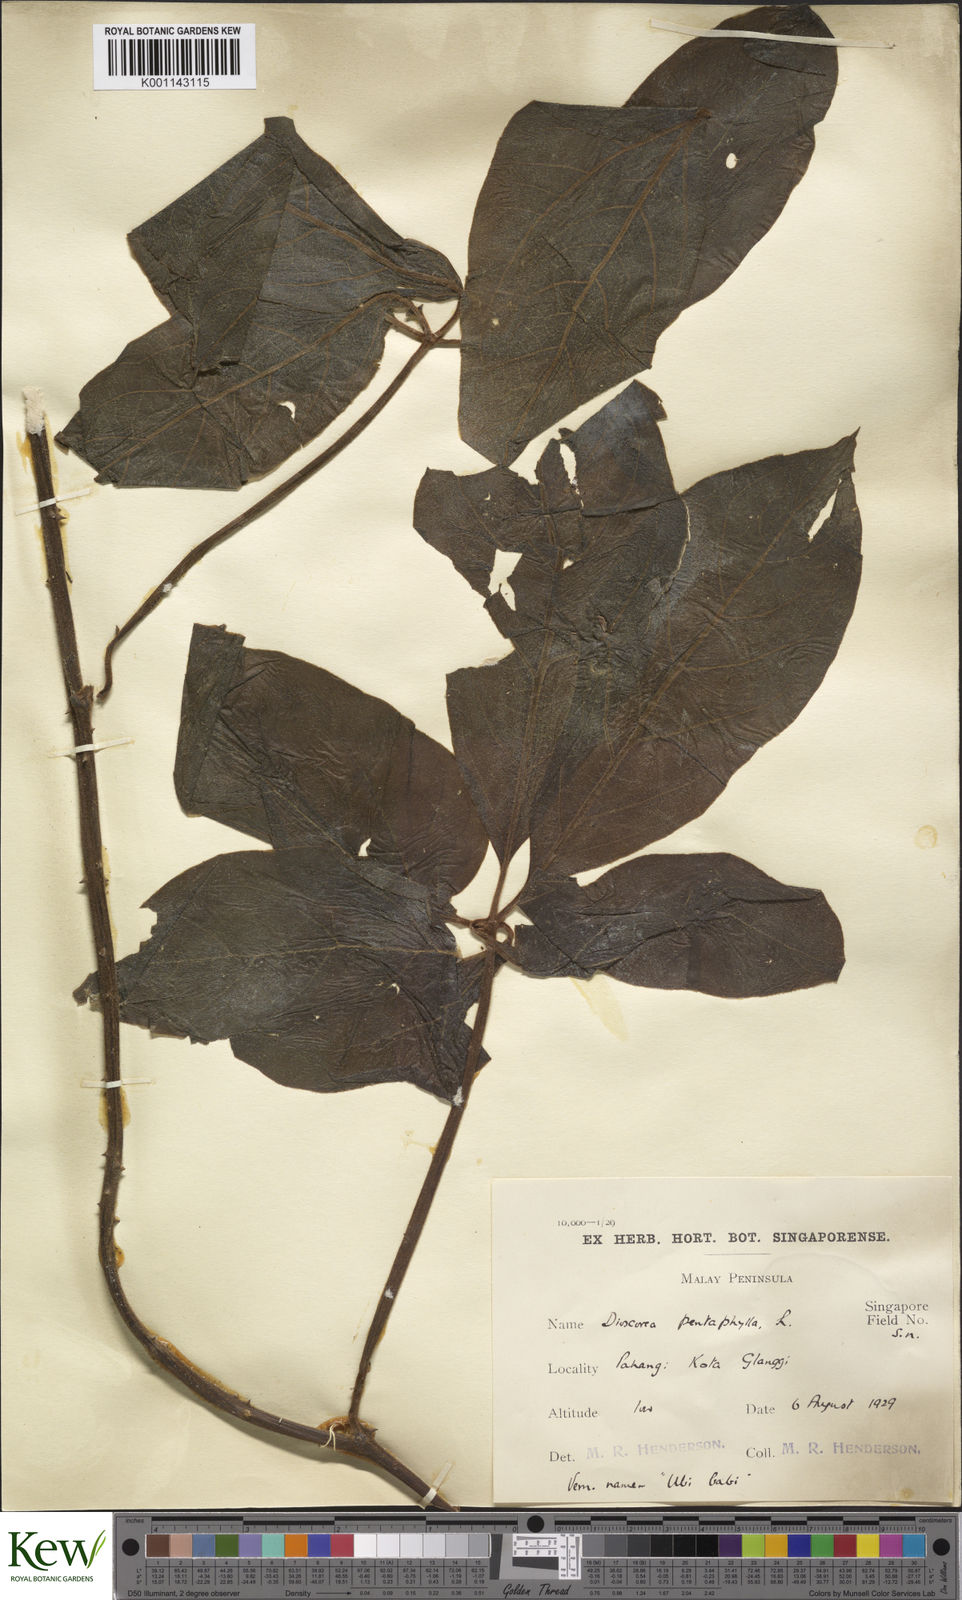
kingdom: Plantae
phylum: Tracheophyta
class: Liliopsida
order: Dioscoreales
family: Dioscoreaceae
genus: Dioscorea
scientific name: Dioscorea pentaphylla
